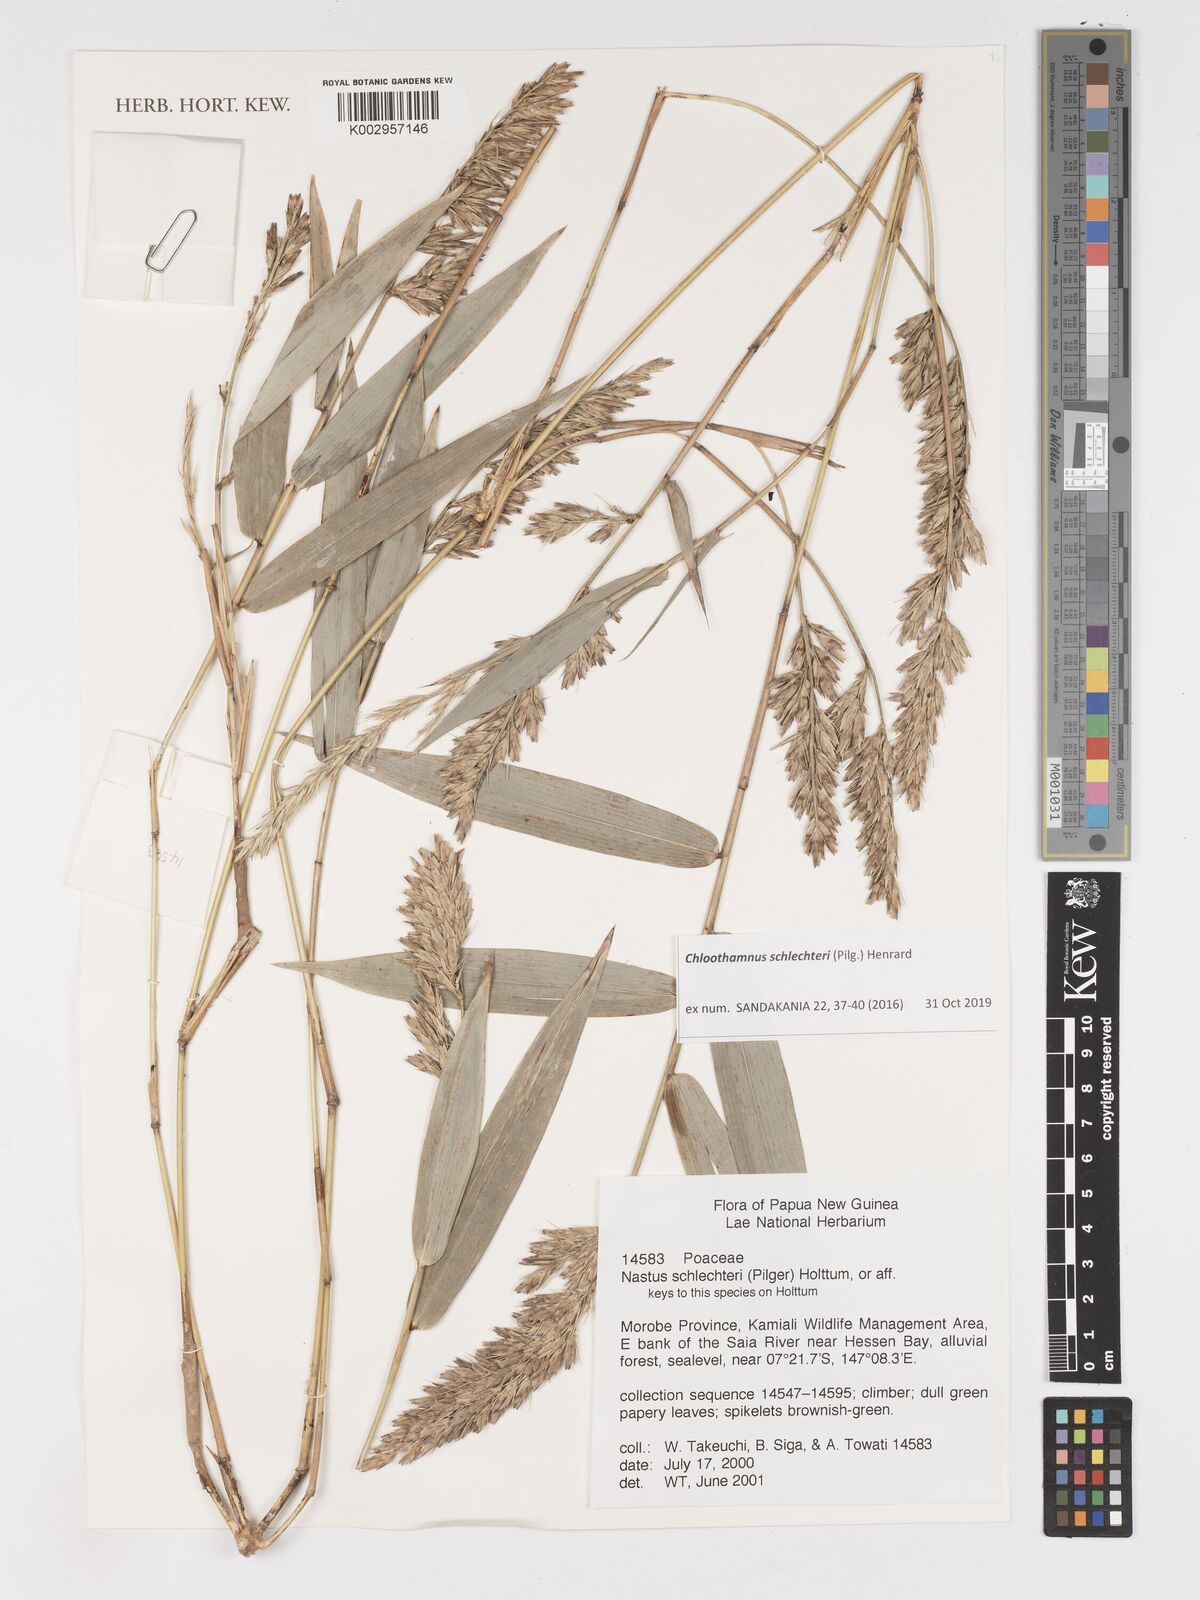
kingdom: Plantae
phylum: Tracheophyta
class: Liliopsida
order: Poales
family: Poaceae
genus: Chloothamnus
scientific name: Chloothamnus schlechteri
